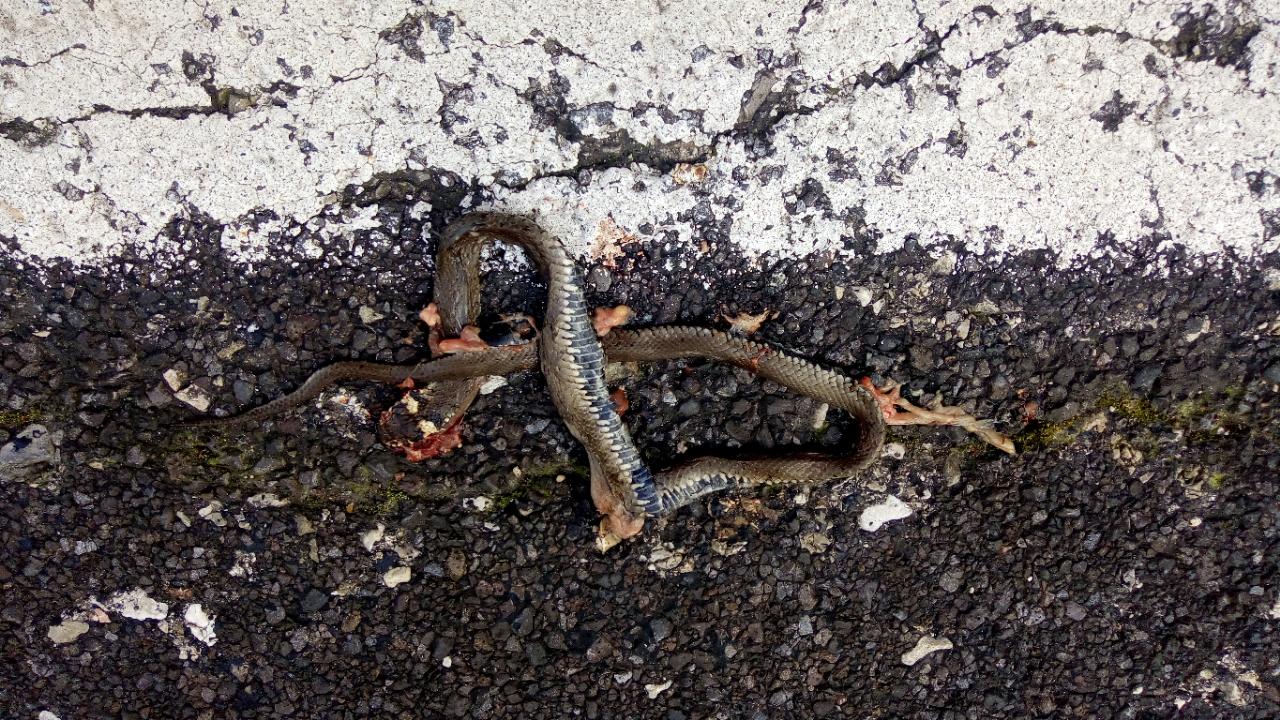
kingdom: Animalia
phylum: Chordata
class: Squamata
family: Colubridae
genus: Natrix
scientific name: Natrix natrix
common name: Grass snake
